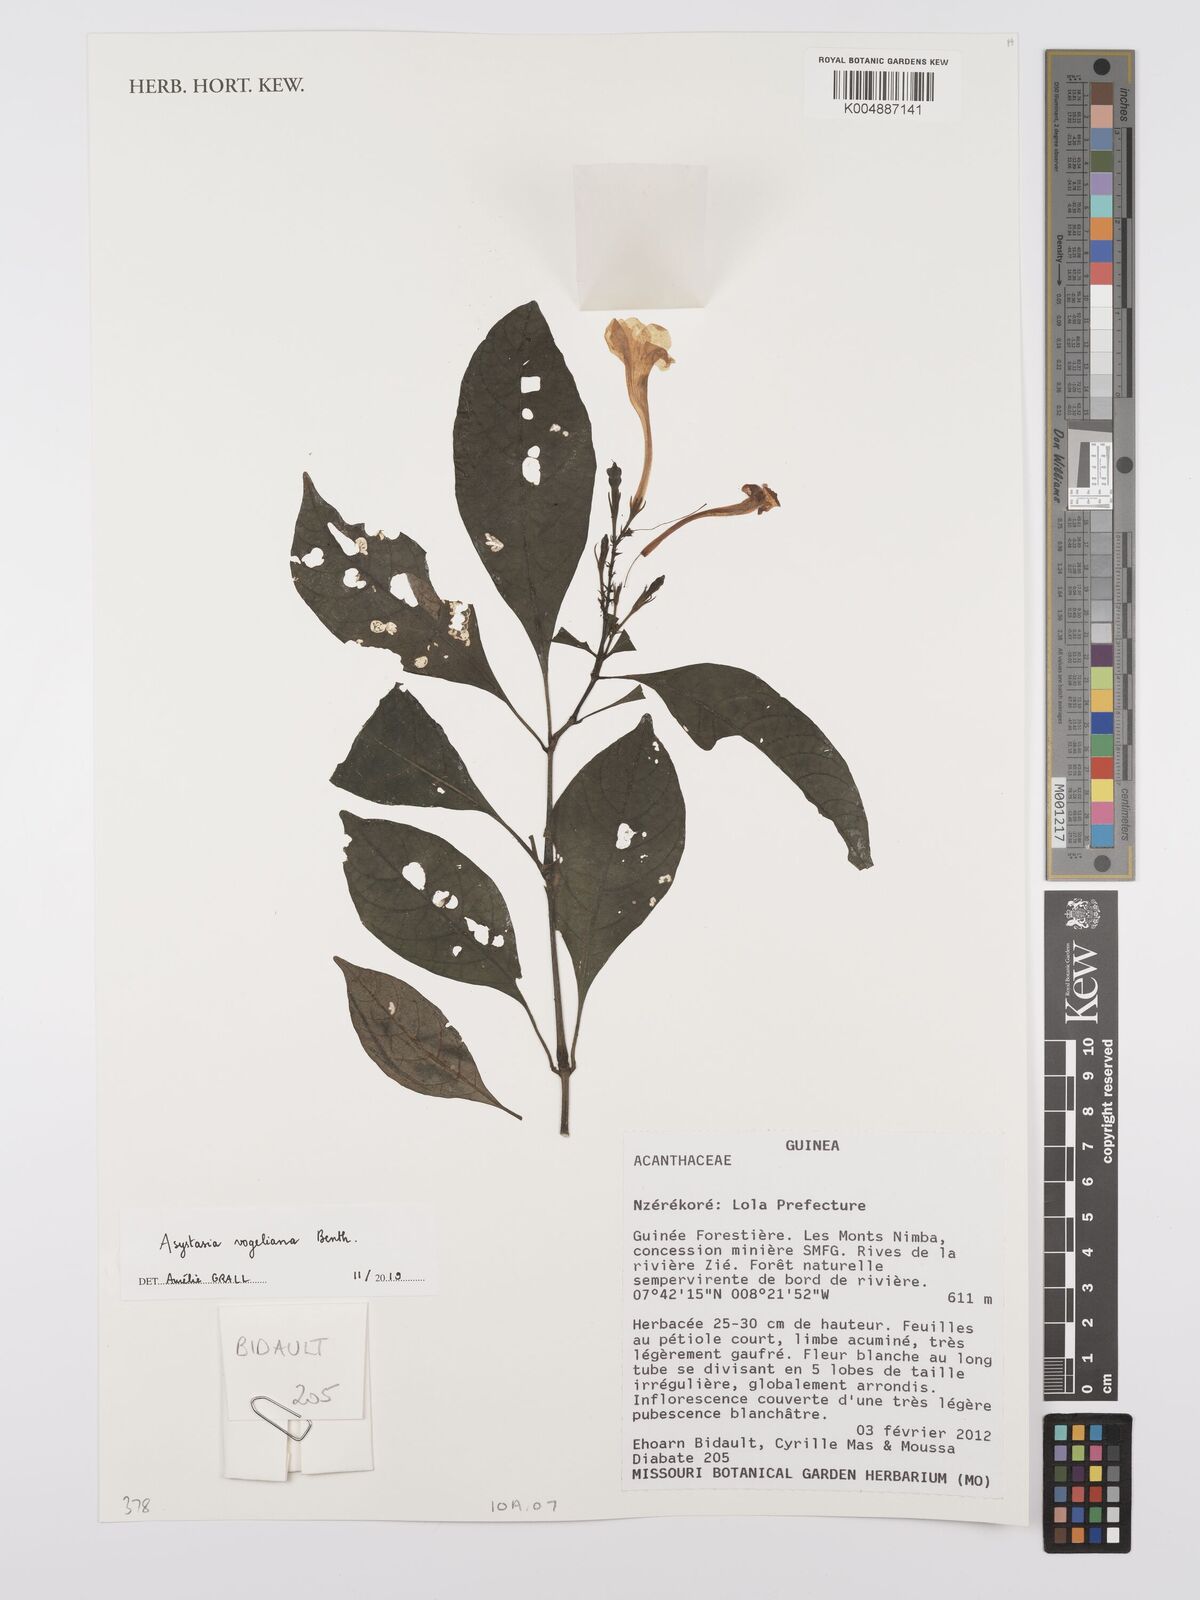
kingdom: Plantae
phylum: Tracheophyta
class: Magnoliopsida
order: Lamiales
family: Acanthaceae
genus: Asystasia
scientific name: Asystasia vogeliana
